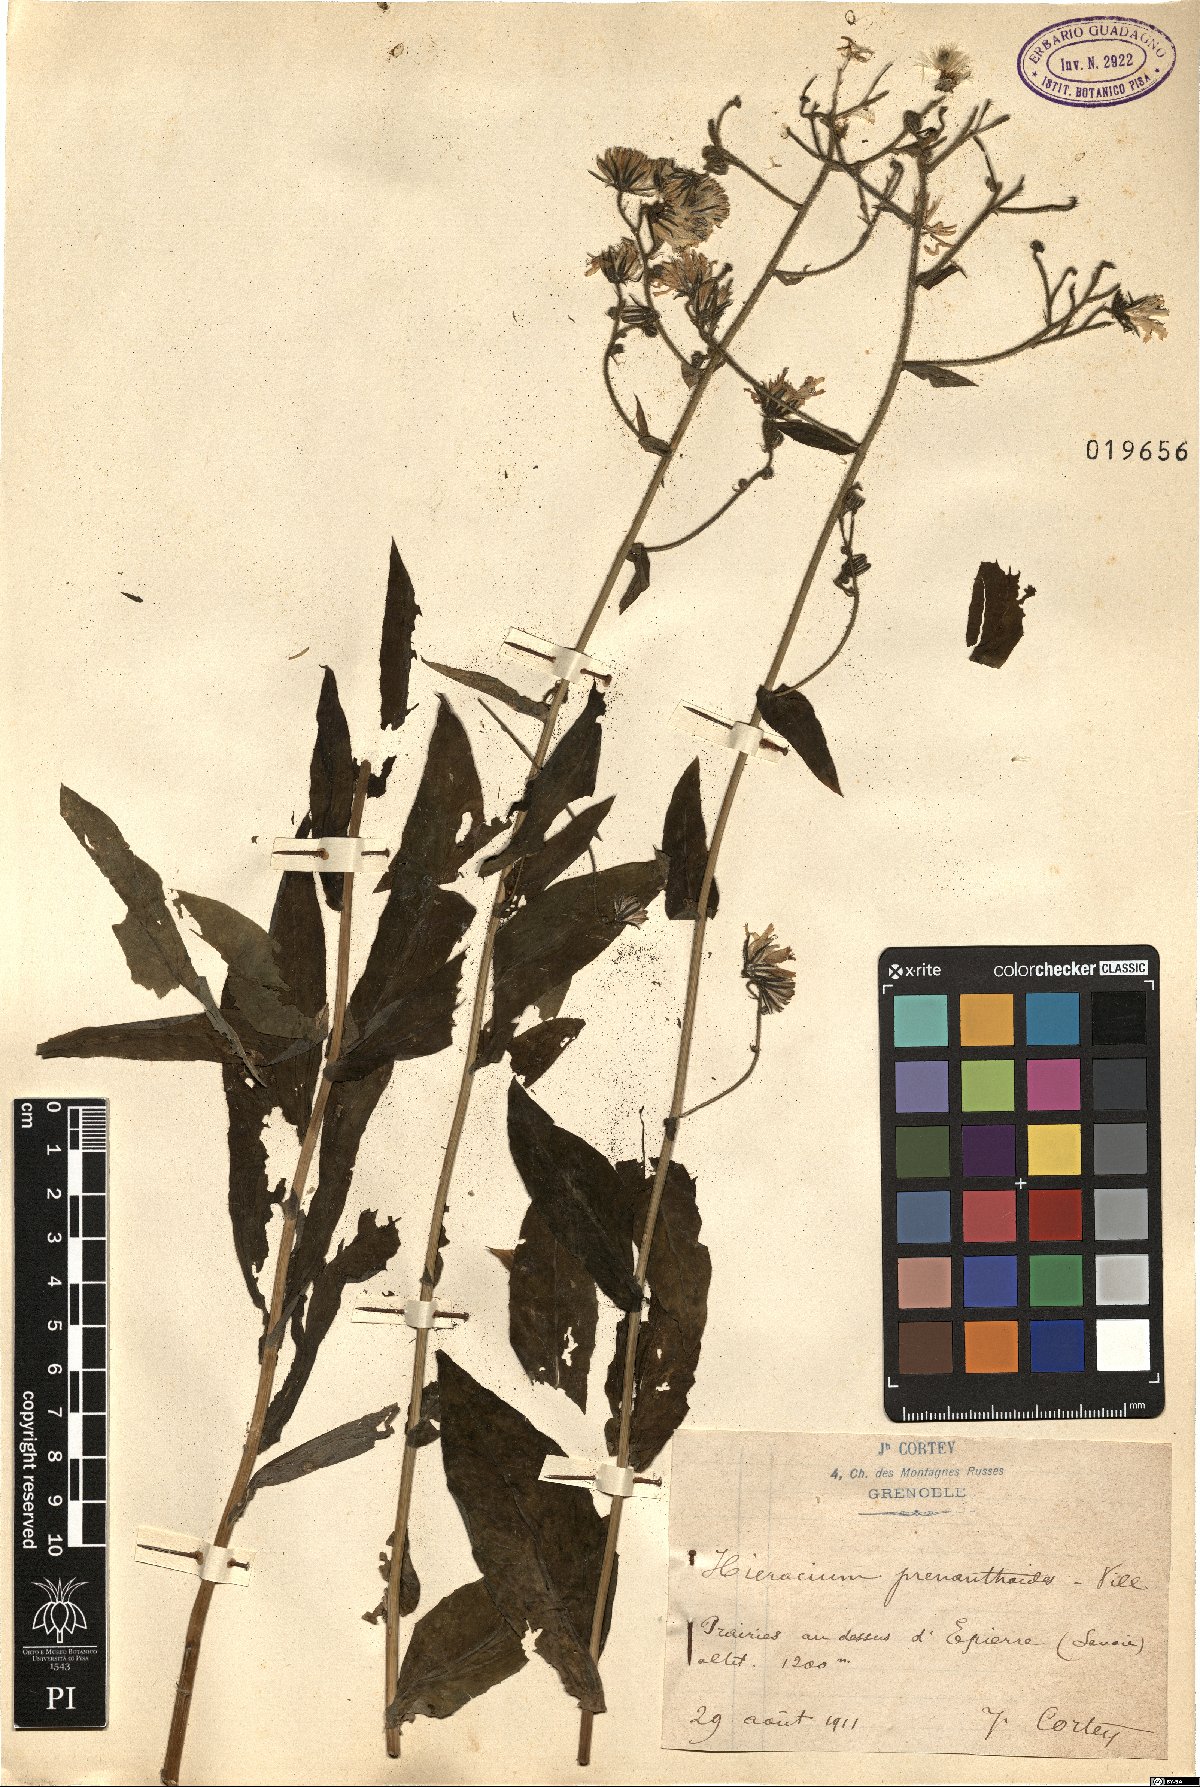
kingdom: Plantae
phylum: Tracheophyta
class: Magnoliopsida
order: Asterales
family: Asteraceae
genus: Hieracium
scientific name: Hieracium prenanthoides
